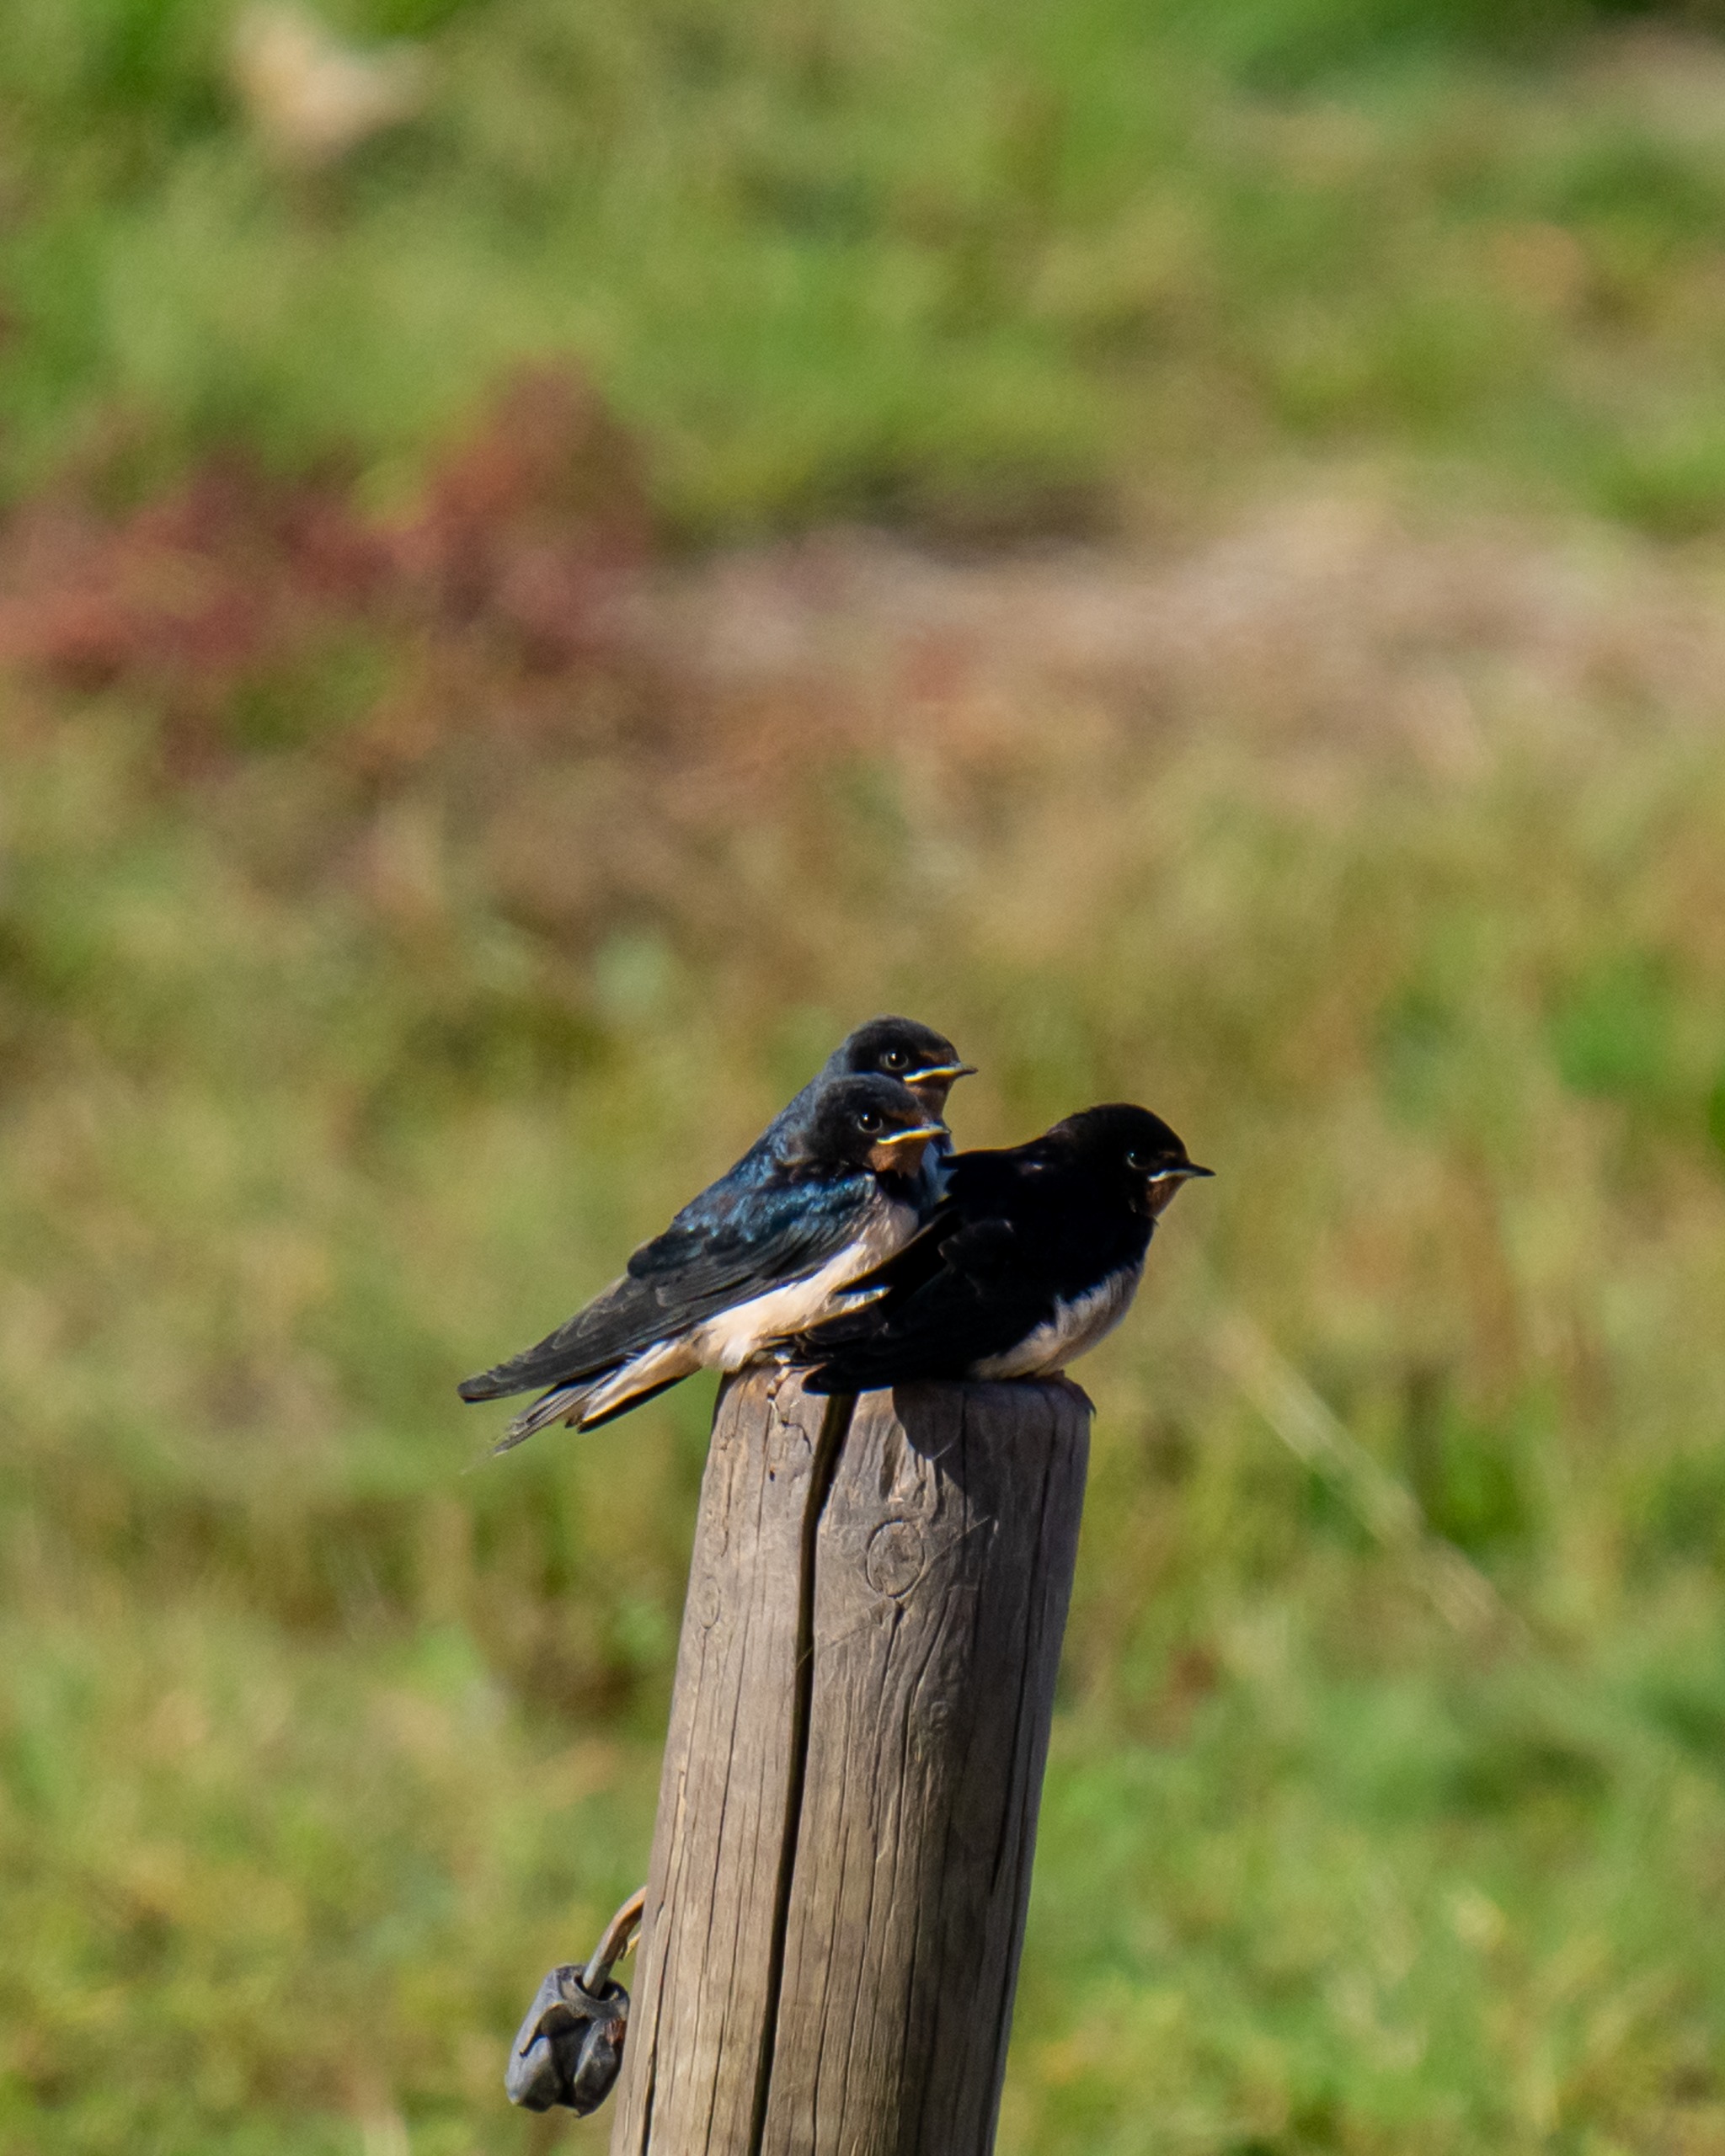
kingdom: Animalia
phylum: Chordata
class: Aves
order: Passeriformes
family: Hirundinidae
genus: Hirundo
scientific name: Hirundo rustica
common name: Landsvale
